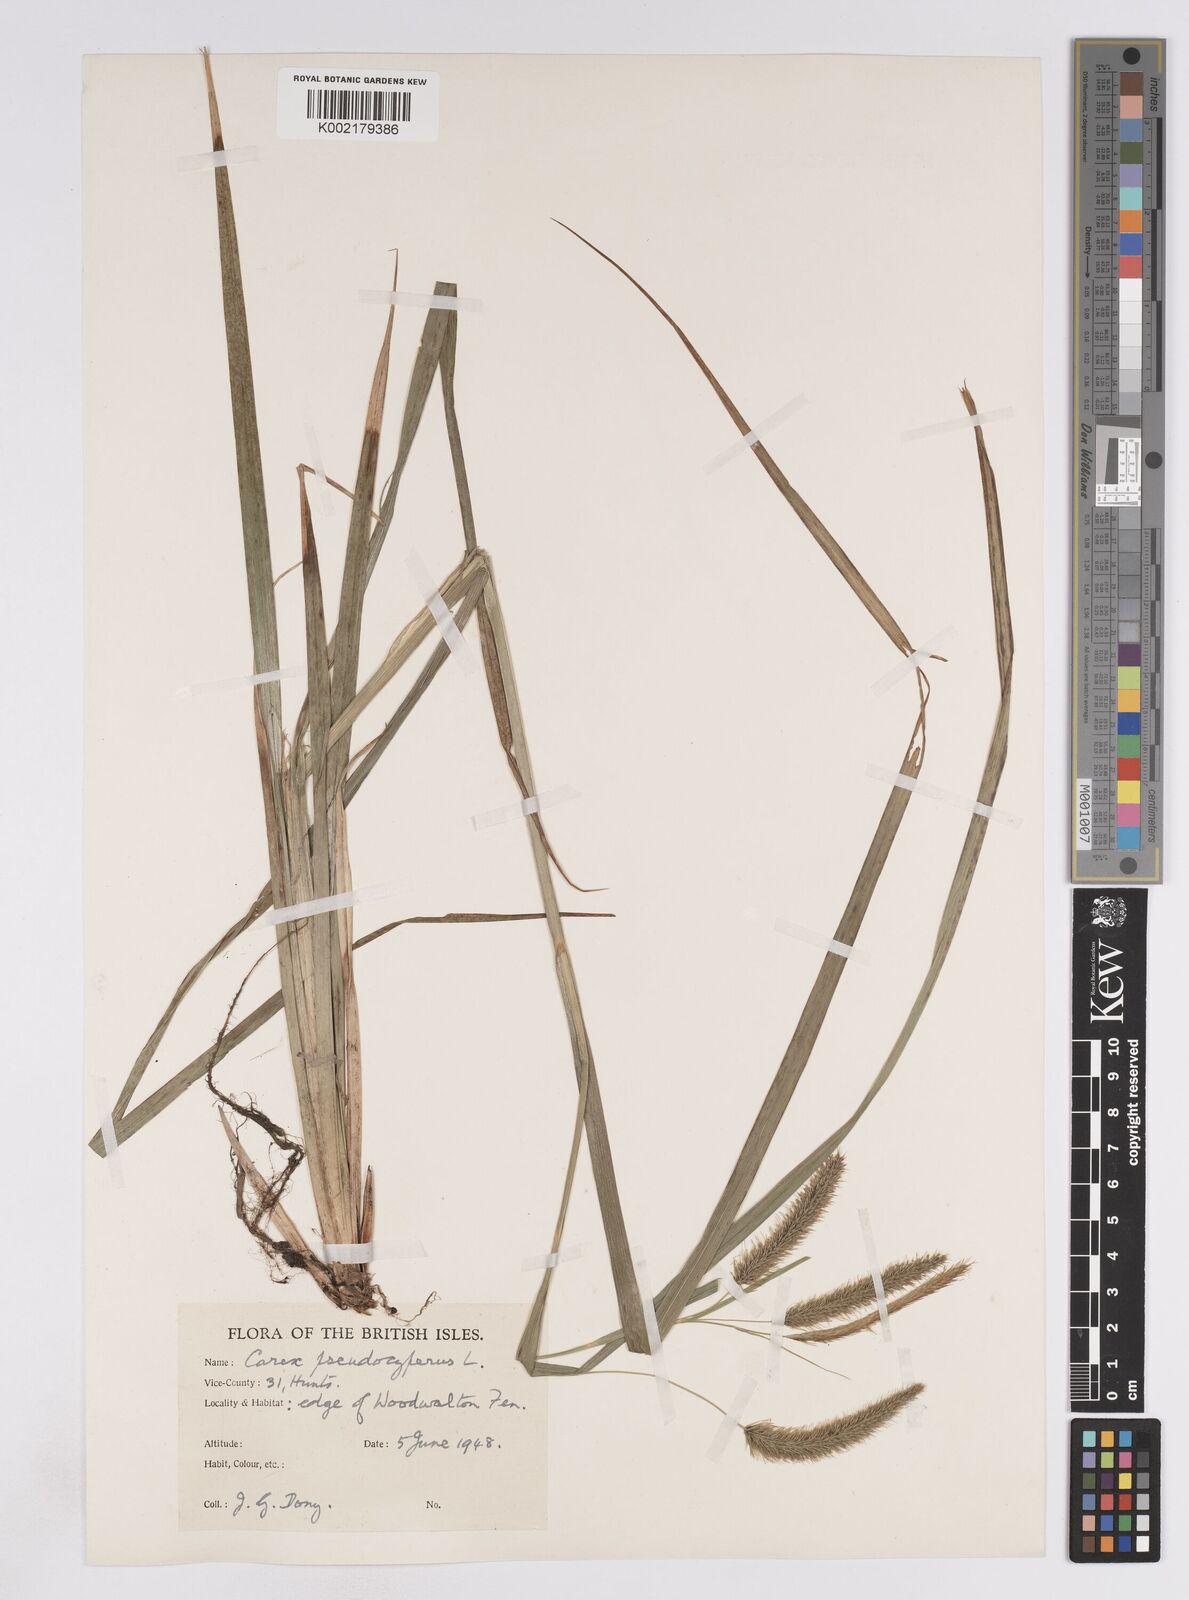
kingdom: Plantae
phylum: Tracheophyta
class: Liliopsida
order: Poales
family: Cyperaceae
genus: Carex
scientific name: Carex pseudocyperus
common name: Cyperus sedge
